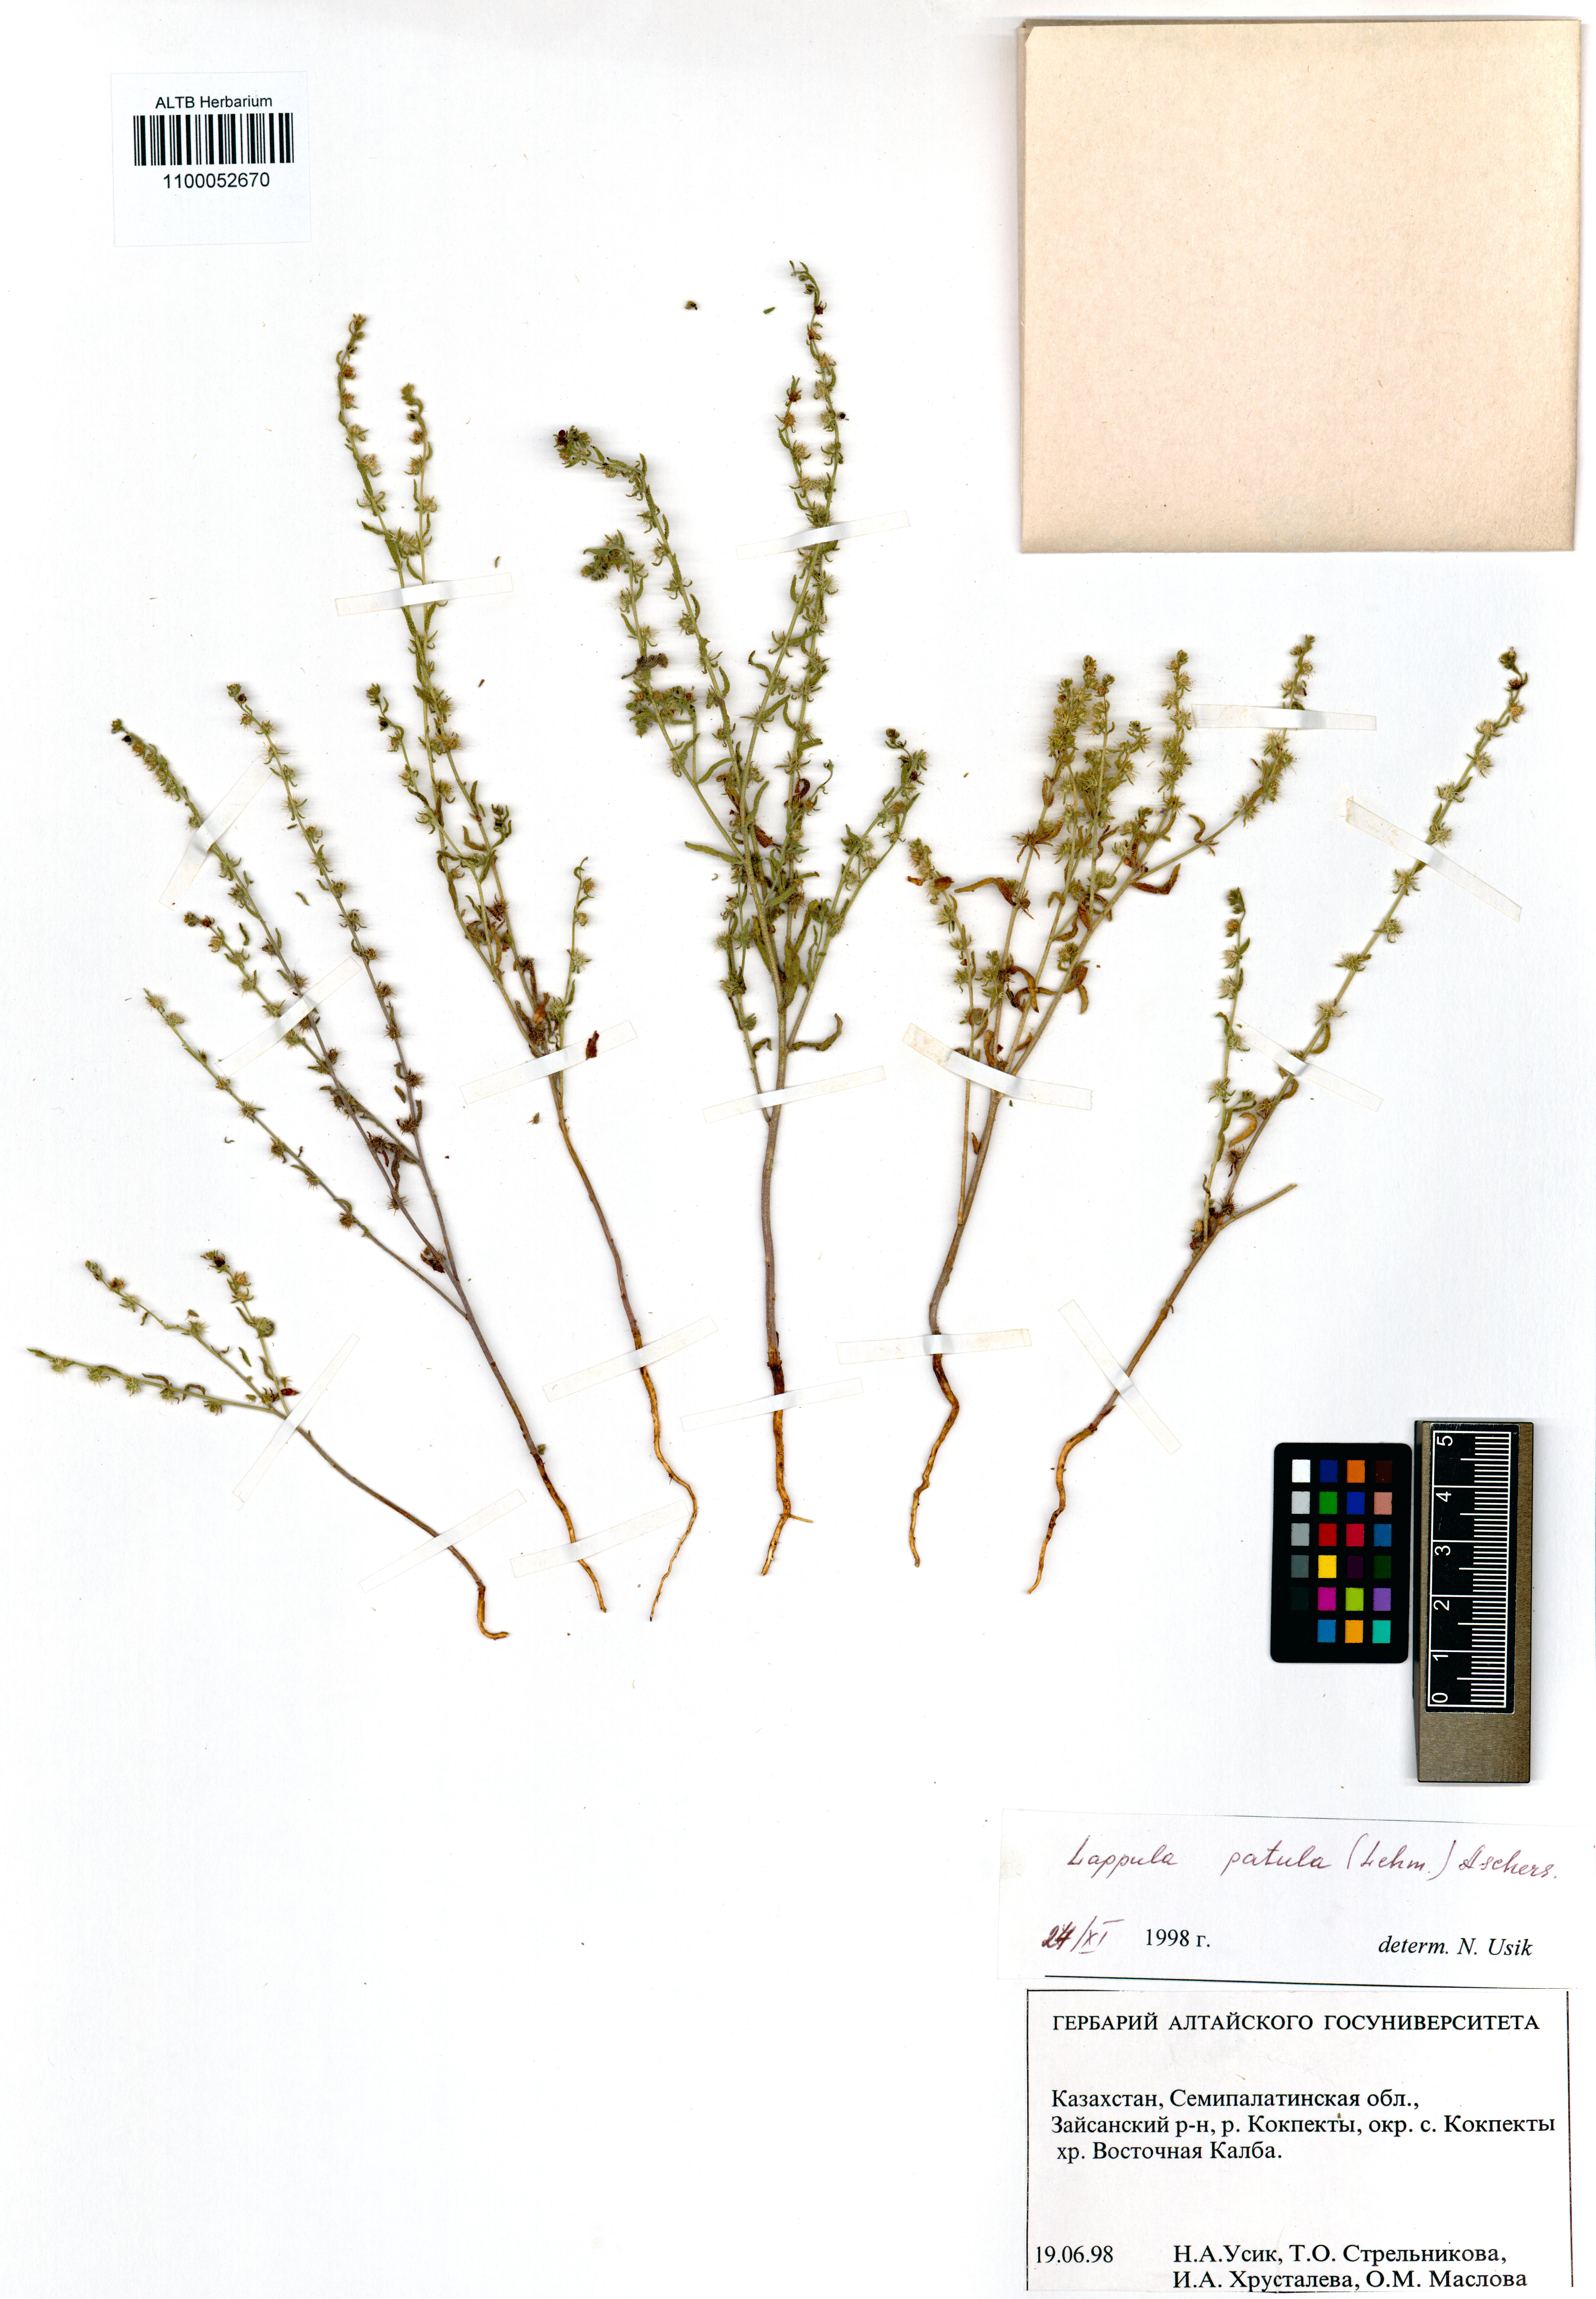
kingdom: Plantae
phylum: Tracheophyta
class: Magnoliopsida
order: Boraginales
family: Boraginaceae
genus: Lappula
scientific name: Lappula patula
